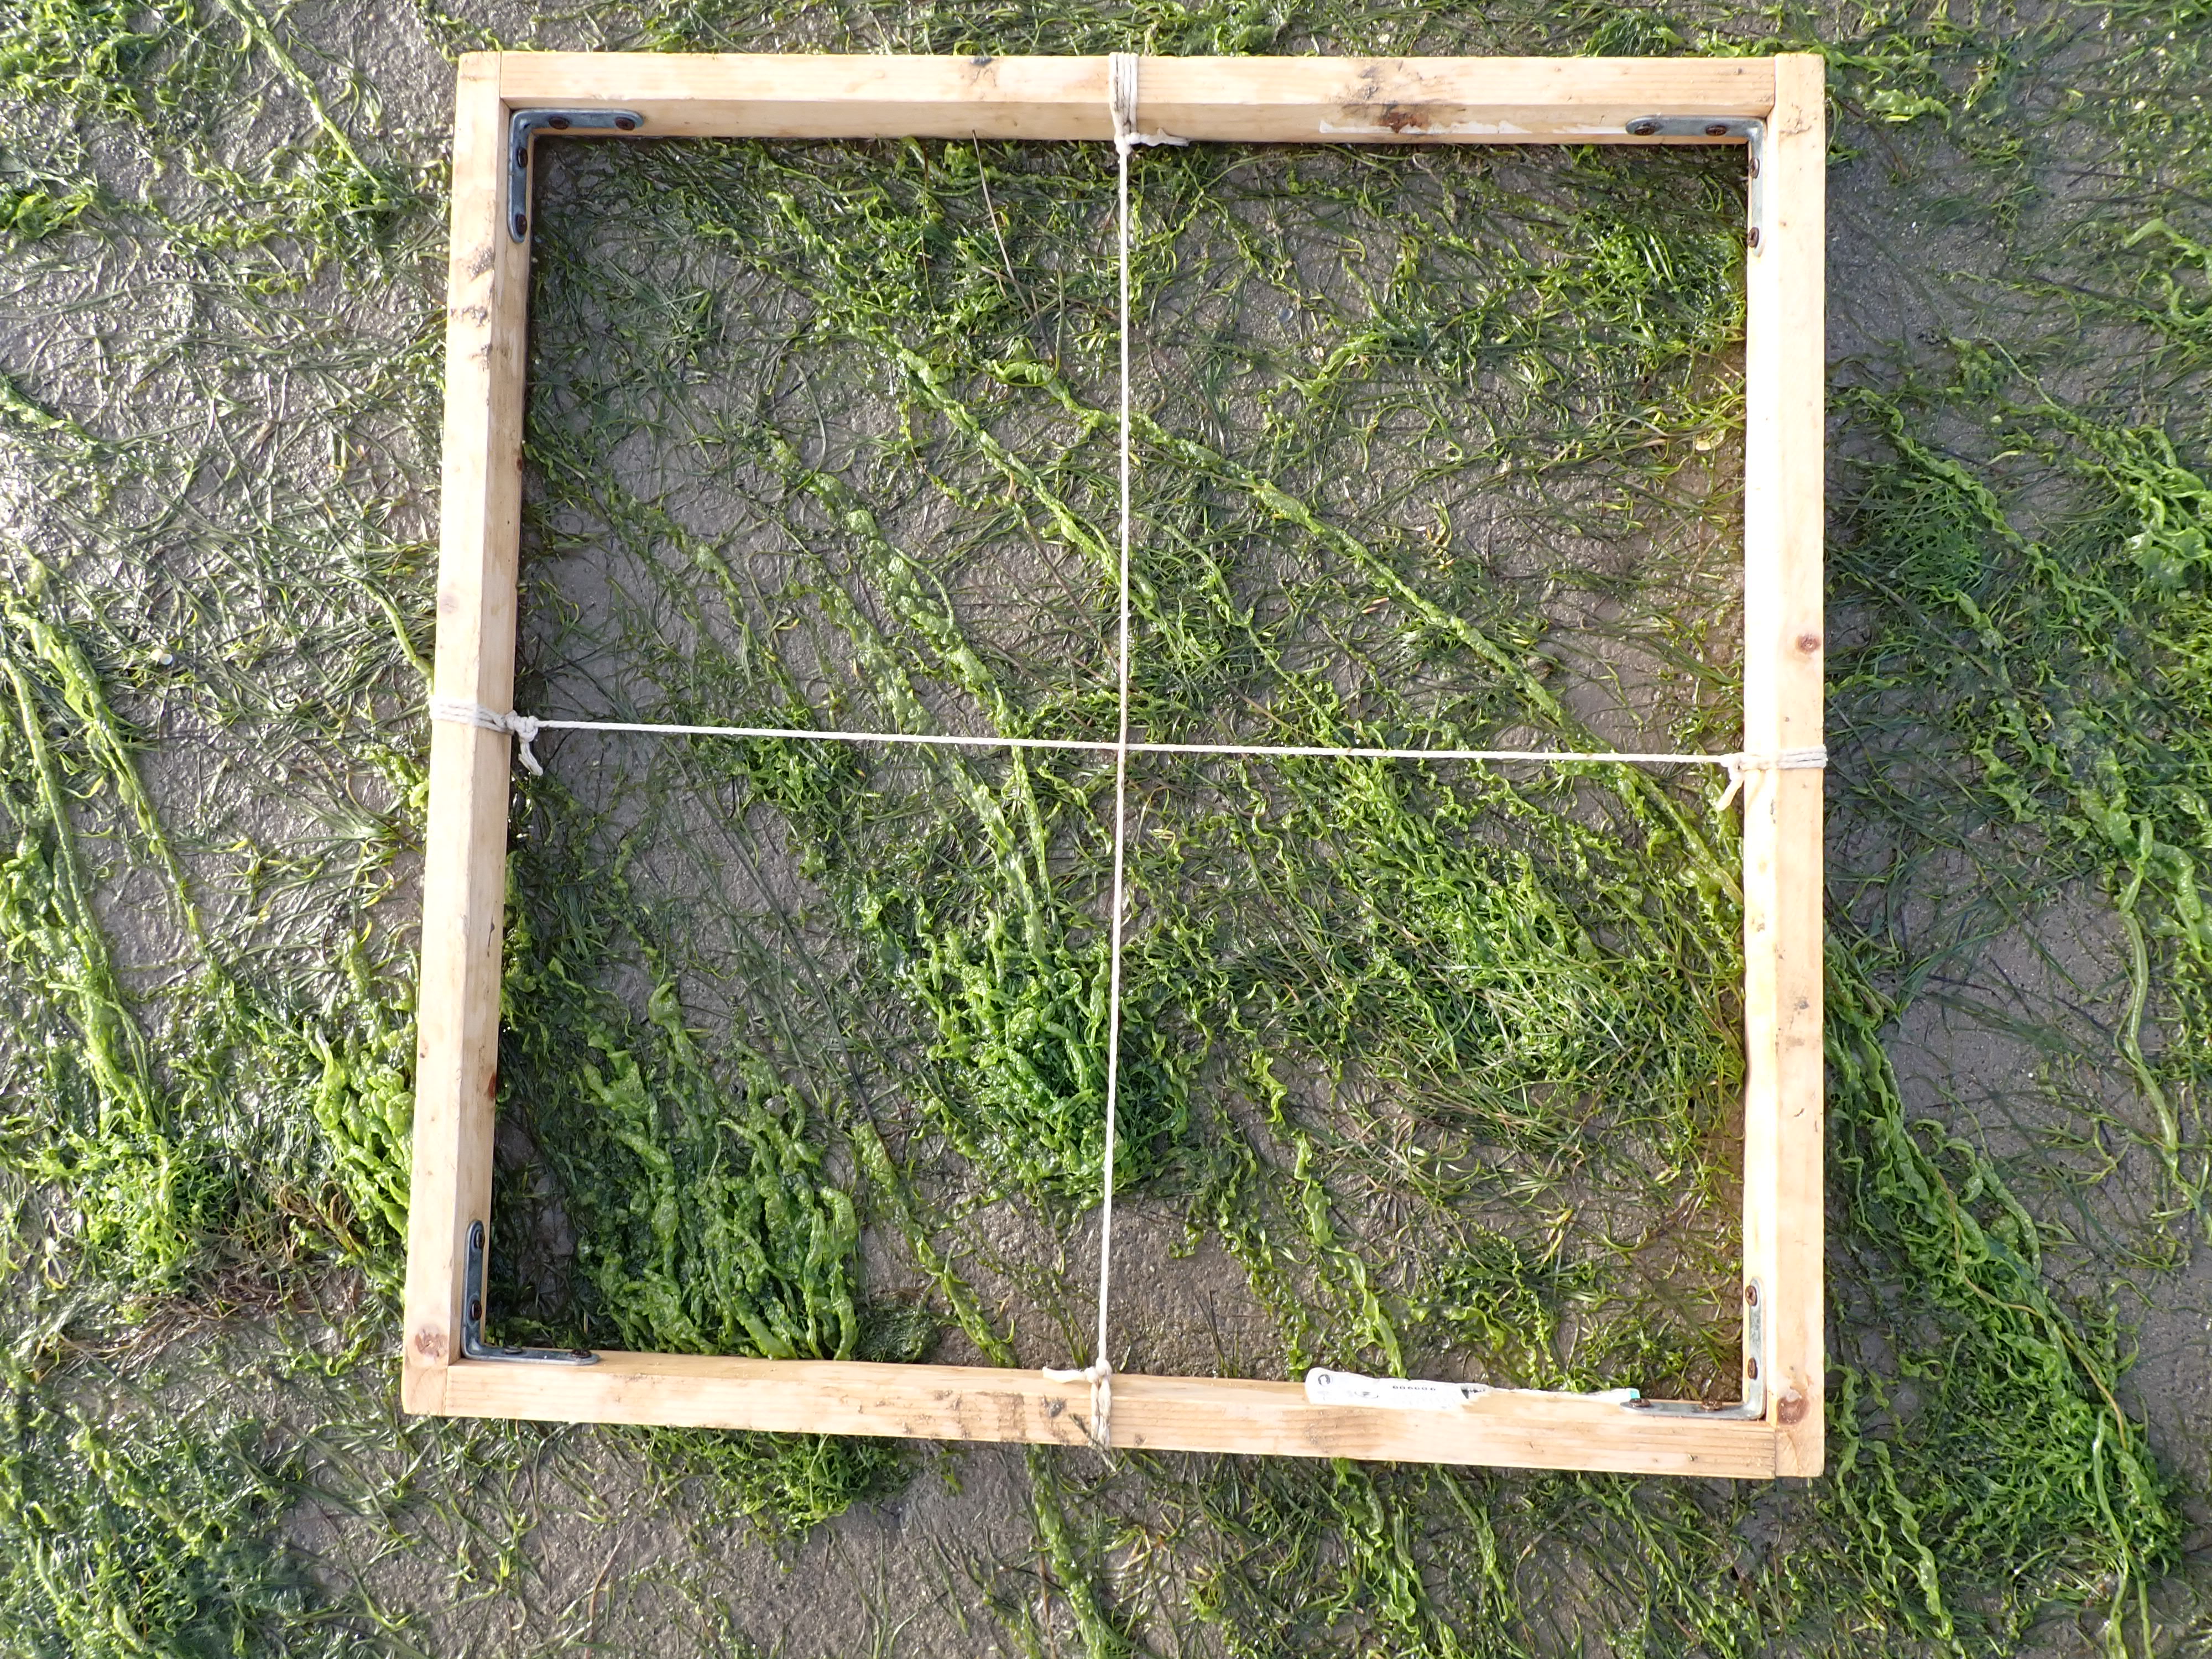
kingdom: Plantae
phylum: Tracheophyta
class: Liliopsida
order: Alismatales
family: Zosteraceae
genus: Zostera
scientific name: Zostera noltii
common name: Dwarf eelgrass
